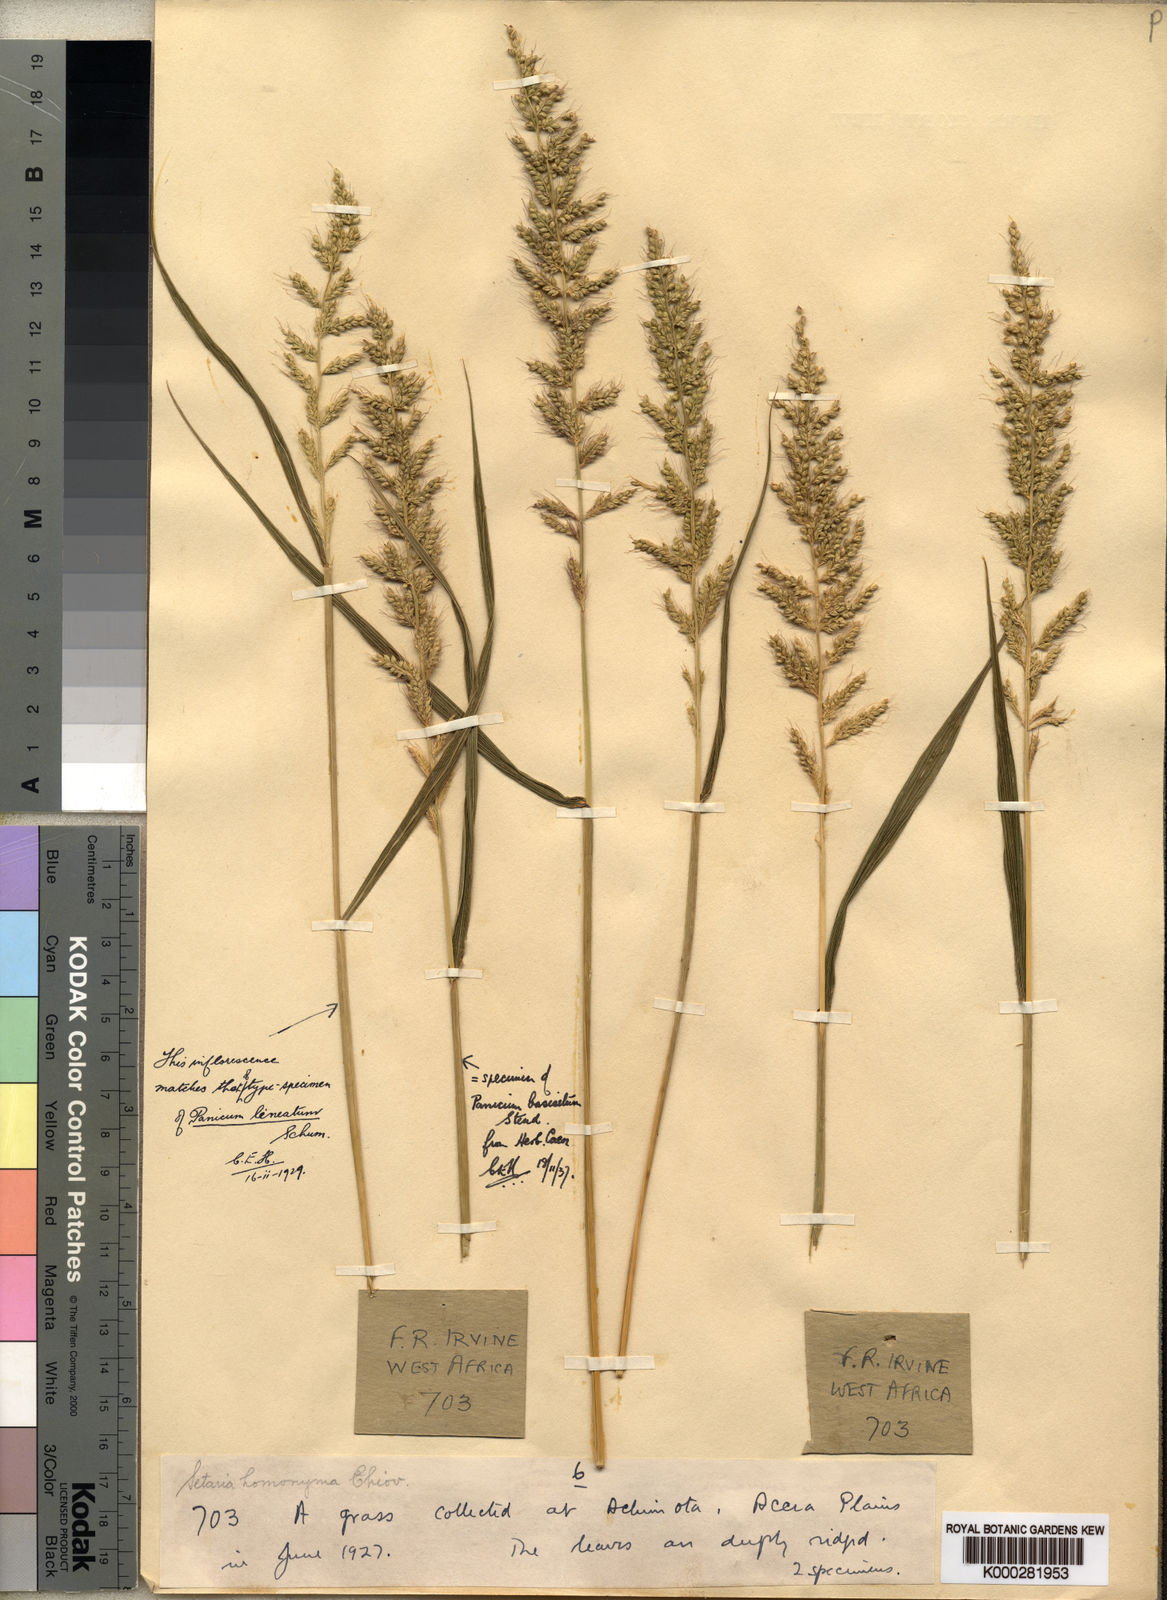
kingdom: Plantae
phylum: Tracheophyta
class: Liliopsida
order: Poales
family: Poaceae
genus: Setaria
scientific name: Setaria barbata
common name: East indian bristlegrass
